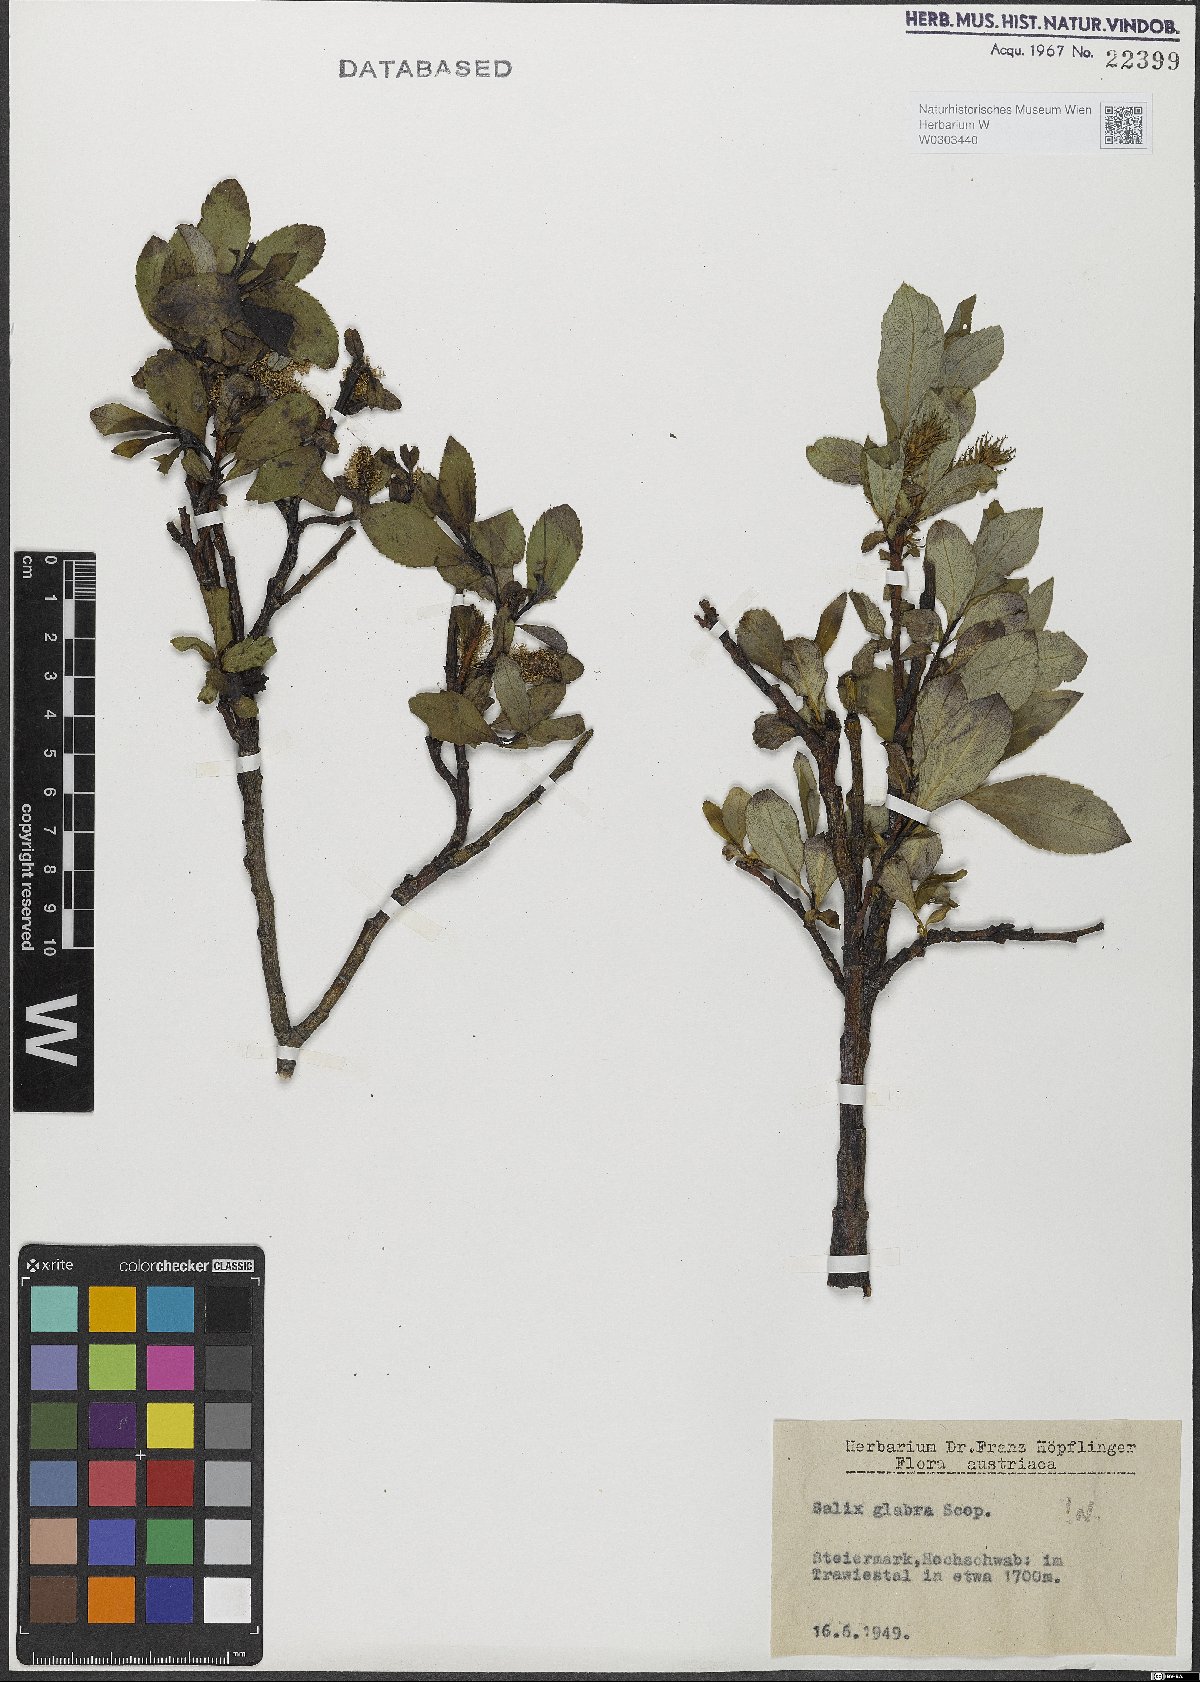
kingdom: Plantae
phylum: Tracheophyta
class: Magnoliopsida
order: Malpighiales
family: Salicaceae
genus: Salix
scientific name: Salix glabra
